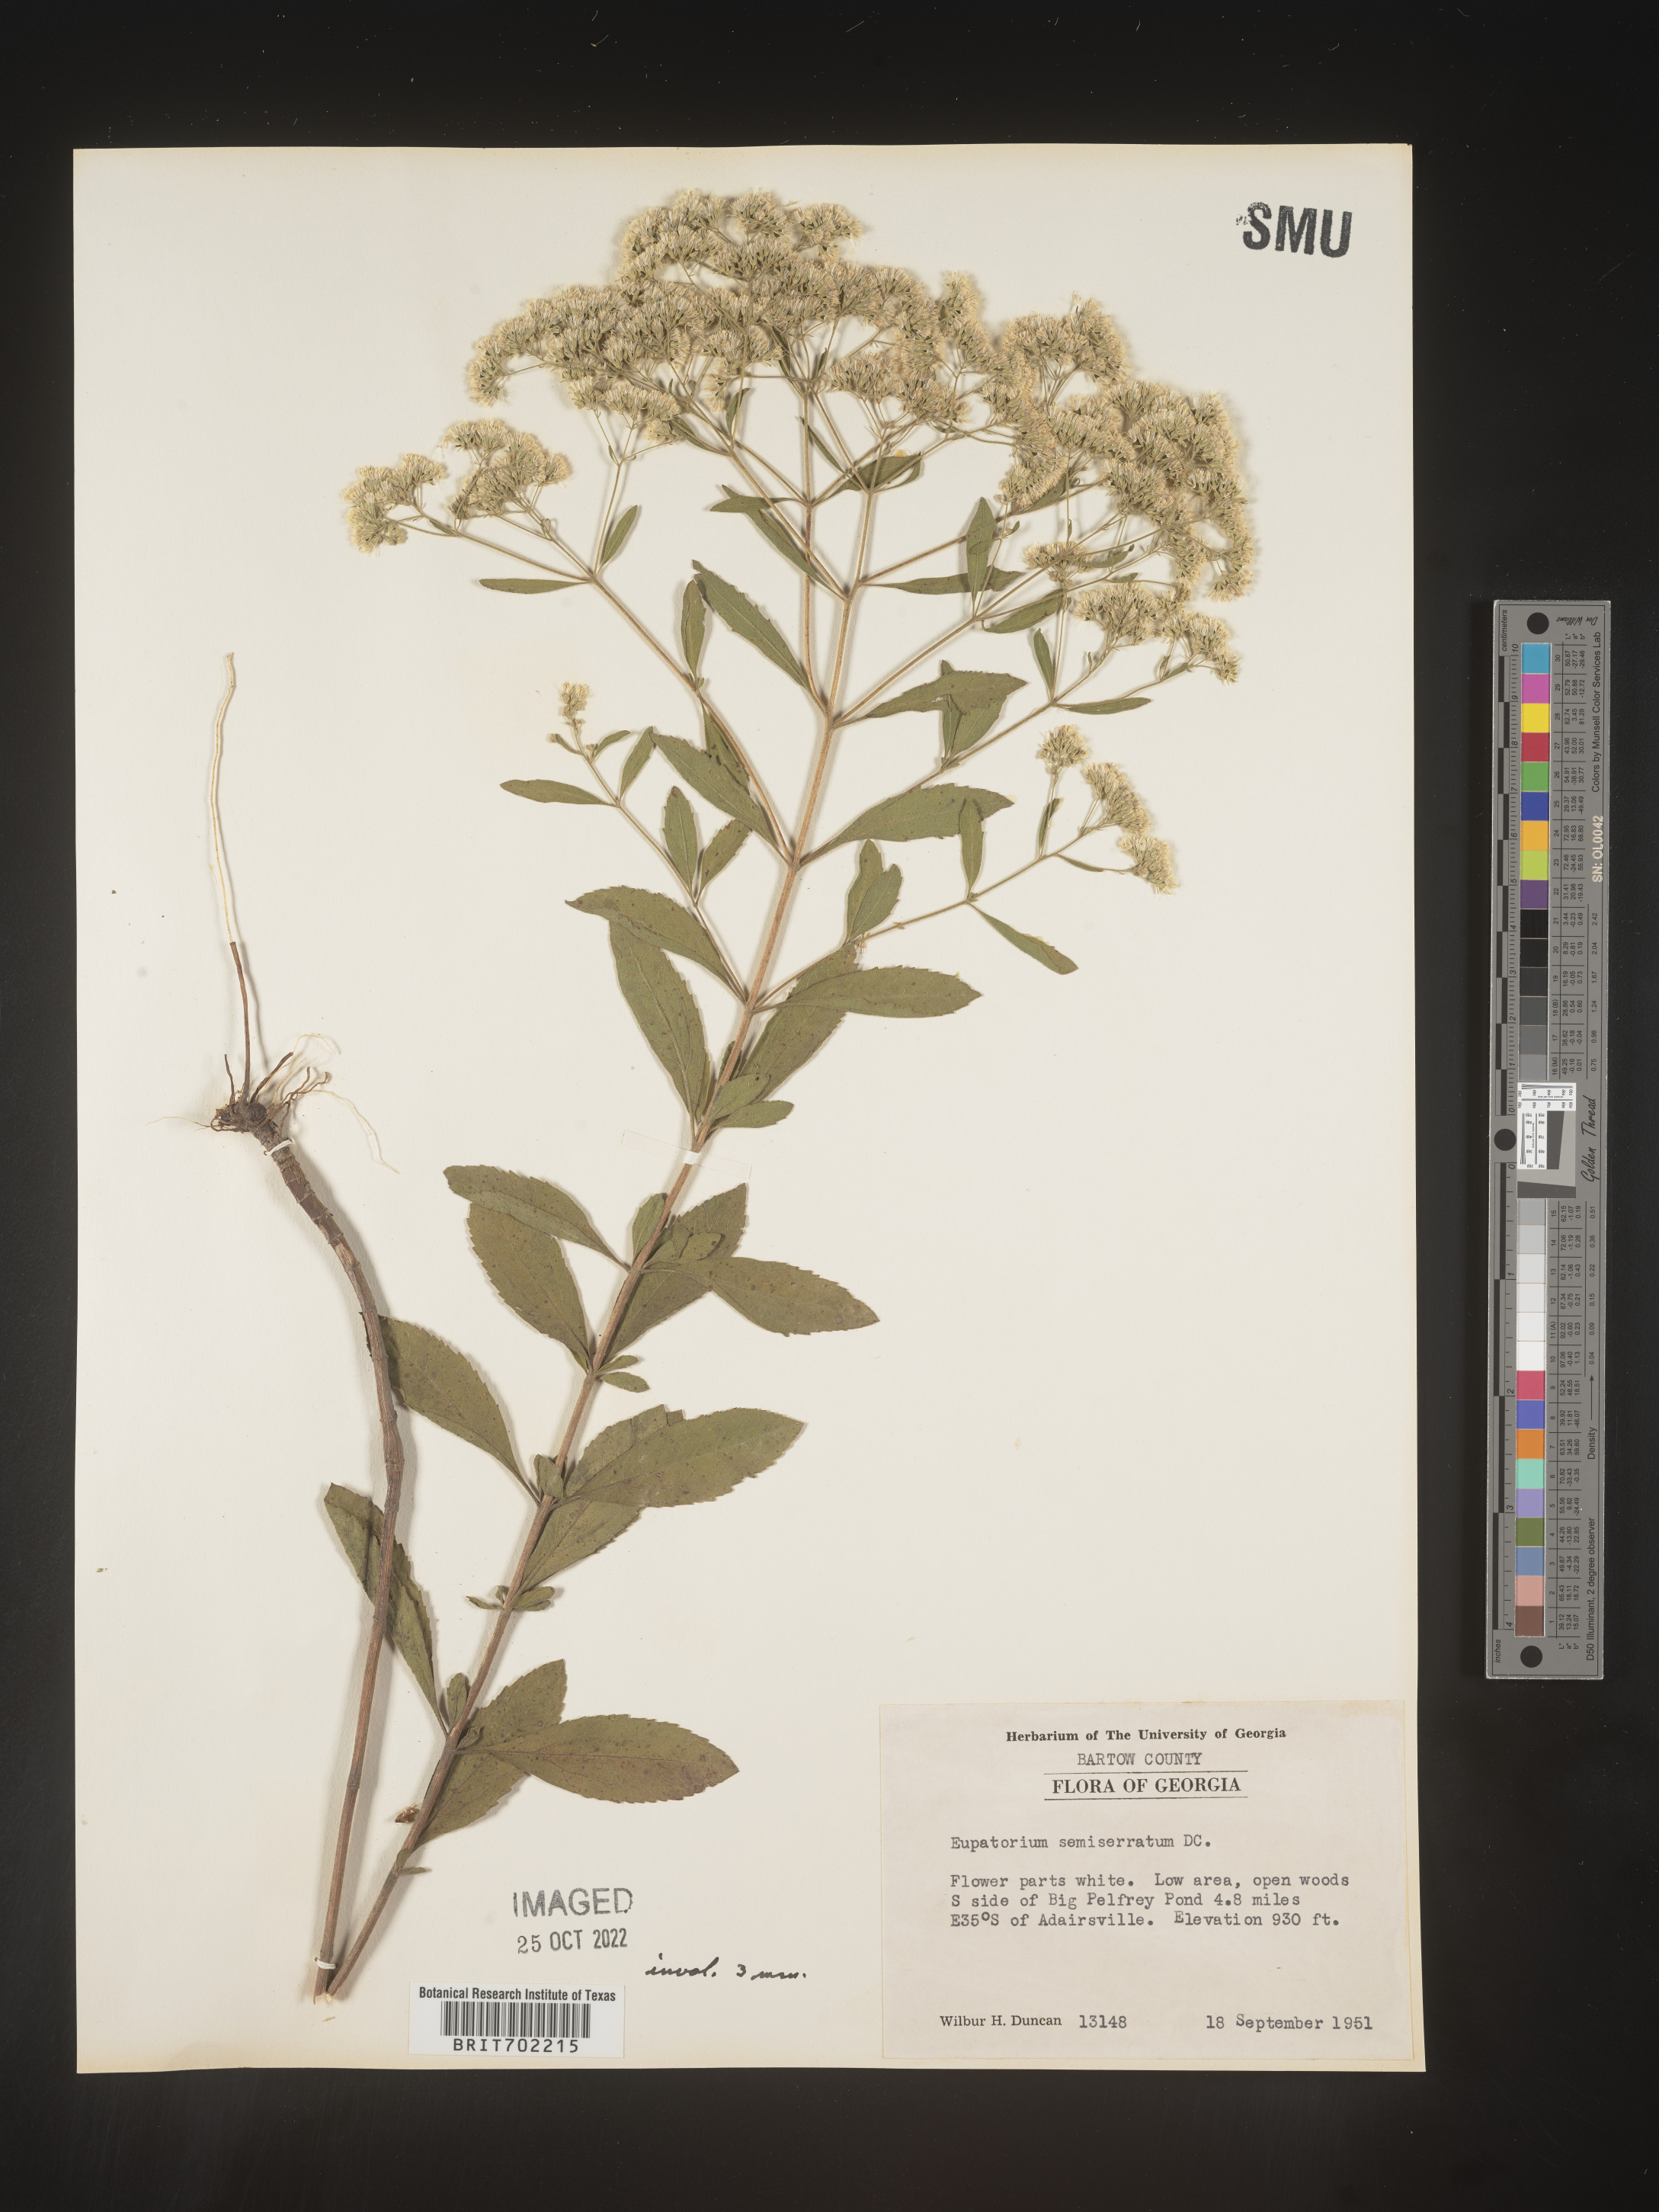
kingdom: Plantae
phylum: Tracheophyta
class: Magnoliopsida
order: Asterales
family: Asteraceae
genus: Eupatorium
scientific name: Eupatorium semiserratum
